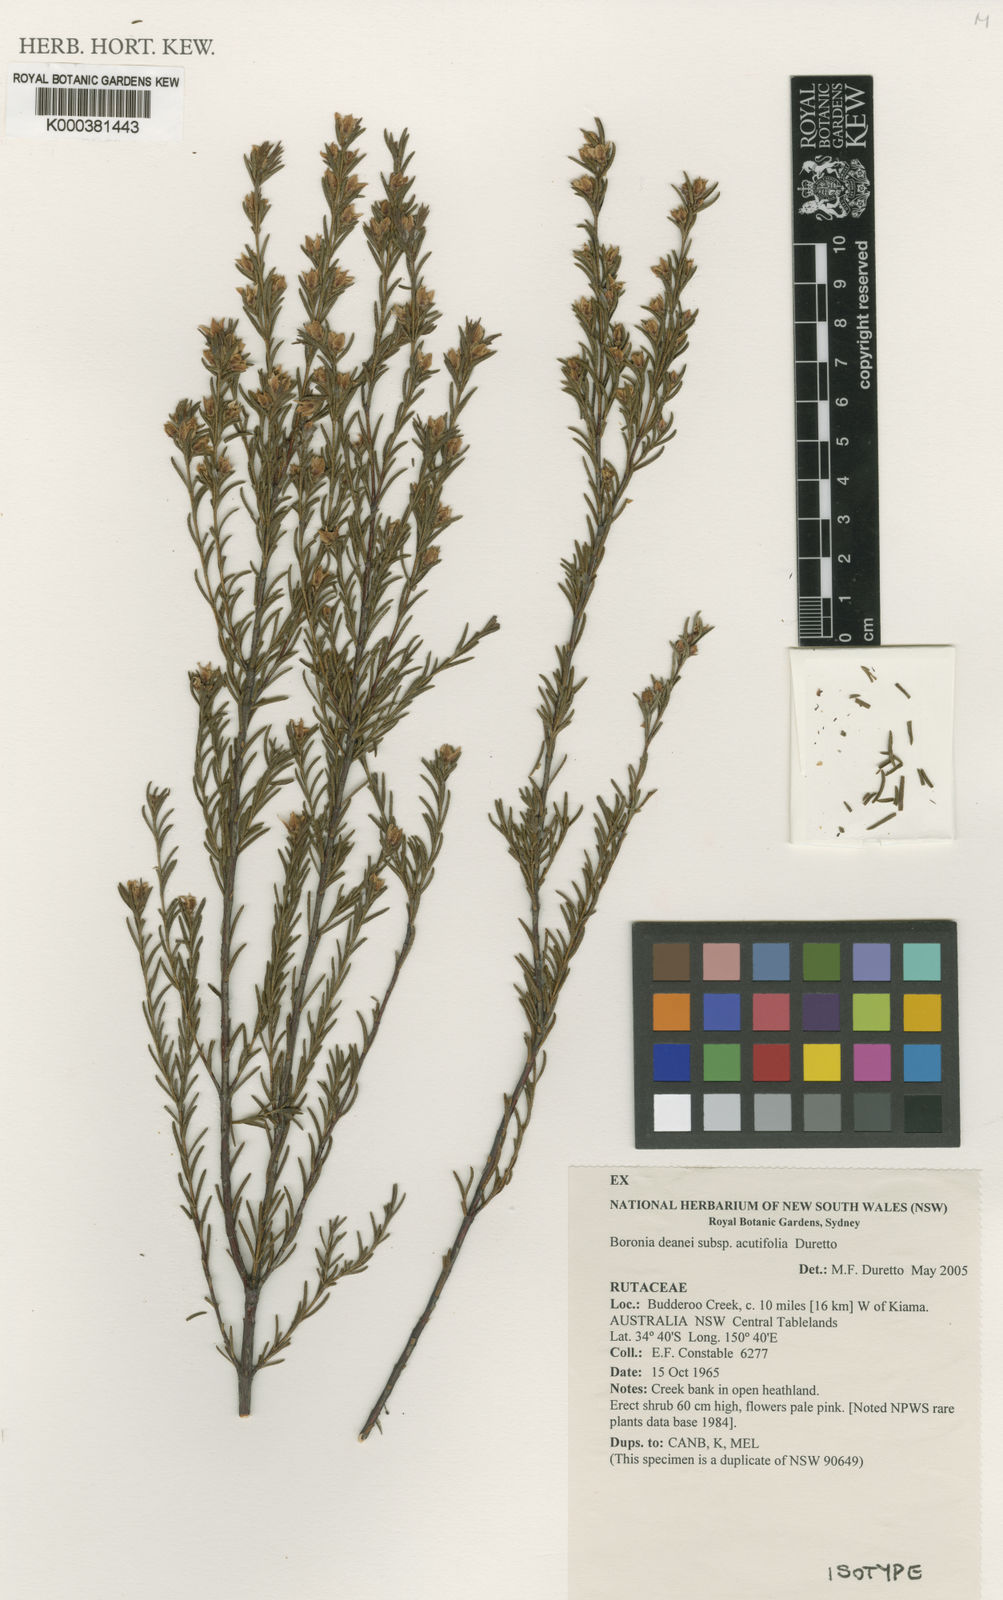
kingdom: Plantae
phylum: Tracheophyta
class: Magnoliopsida
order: Sapindales
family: Rutaceae
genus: Boronia
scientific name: Boronia deanei
